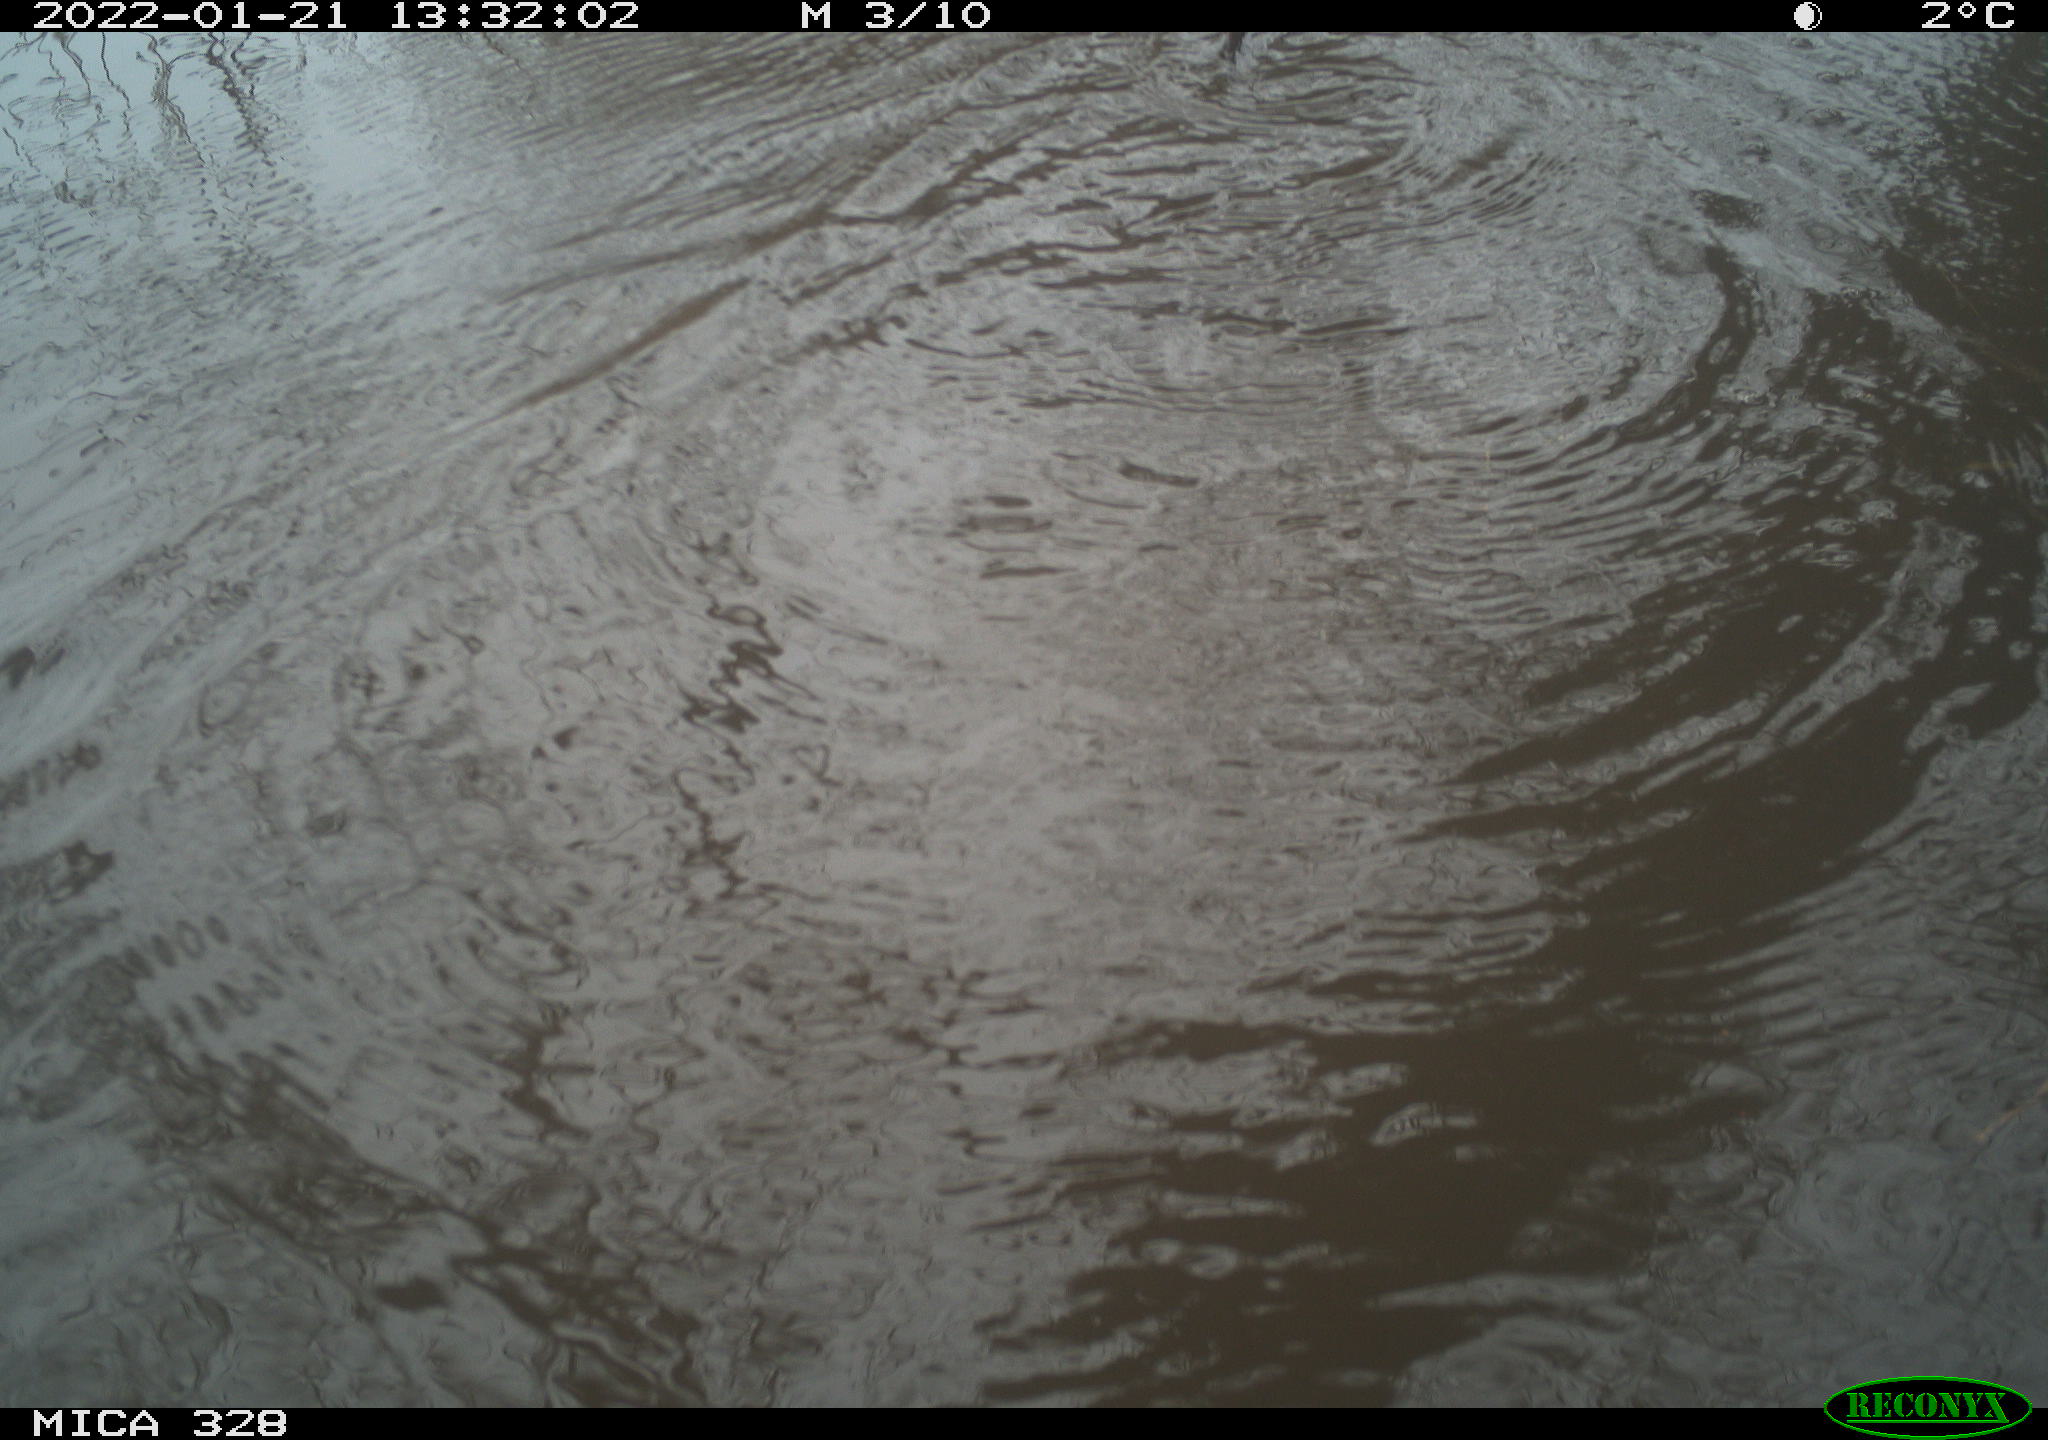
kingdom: Animalia
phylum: Chordata
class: Mammalia
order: Rodentia
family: Cricetidae
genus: Ondatra
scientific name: Ondatra zibethicus
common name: Muskrat
